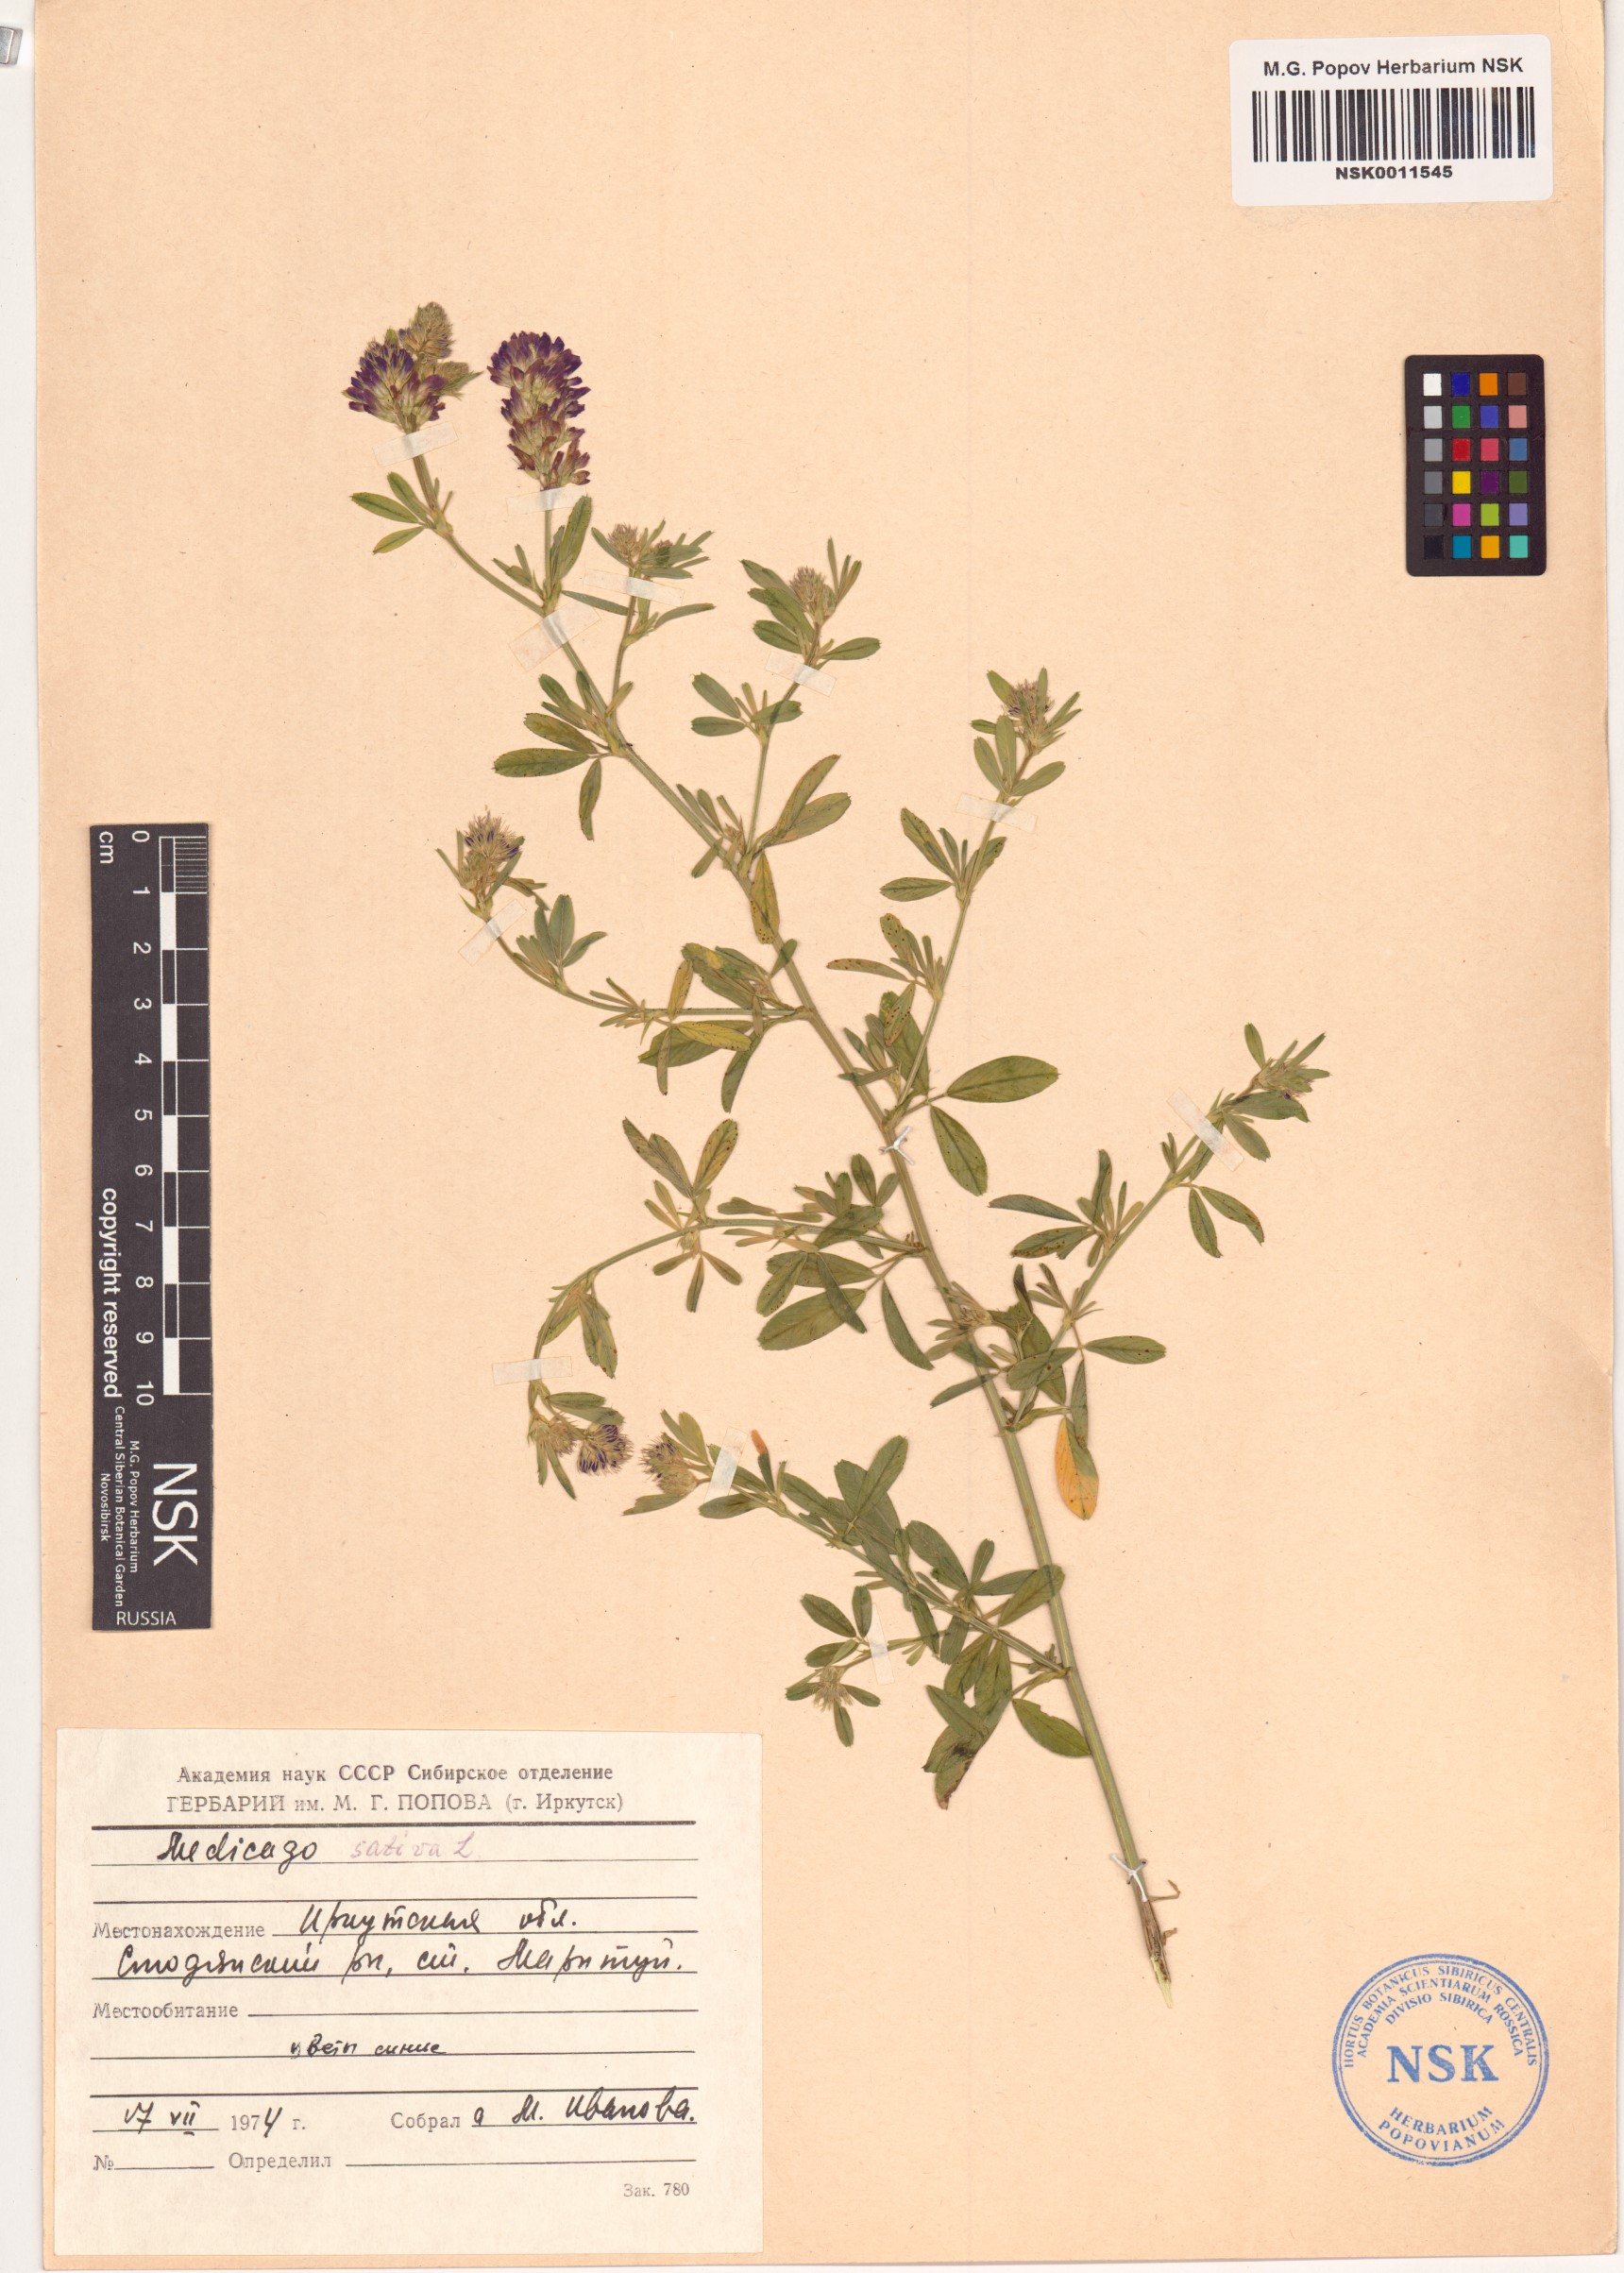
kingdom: Plantae
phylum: Tracheophyta
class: Magnoliopsida
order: Fabales
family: Fabaceae
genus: Medicago
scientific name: Medicago sativa
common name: Alfalfa
